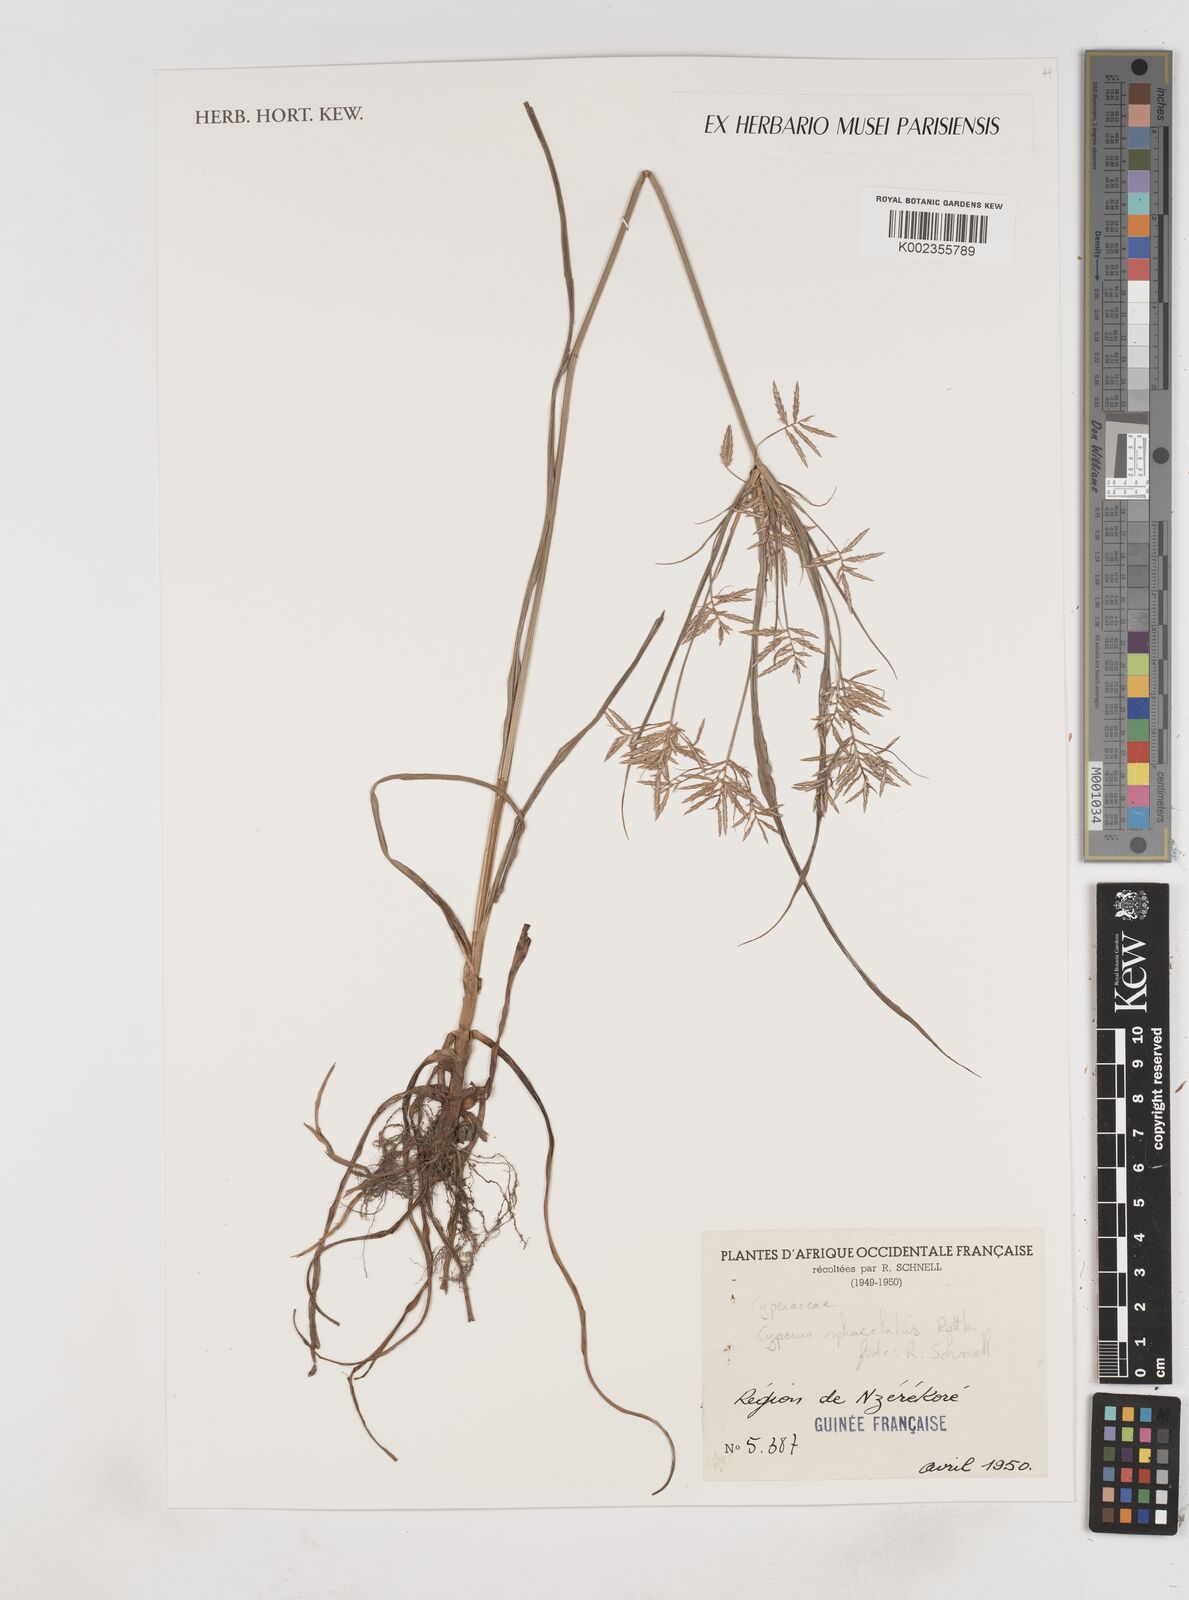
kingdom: Plantae
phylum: Tracheophyta
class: Liliopsida
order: Poales
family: Cyperaceae
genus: Cyperus
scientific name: Cyperus sphacelatus
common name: Roadside flatsedge
